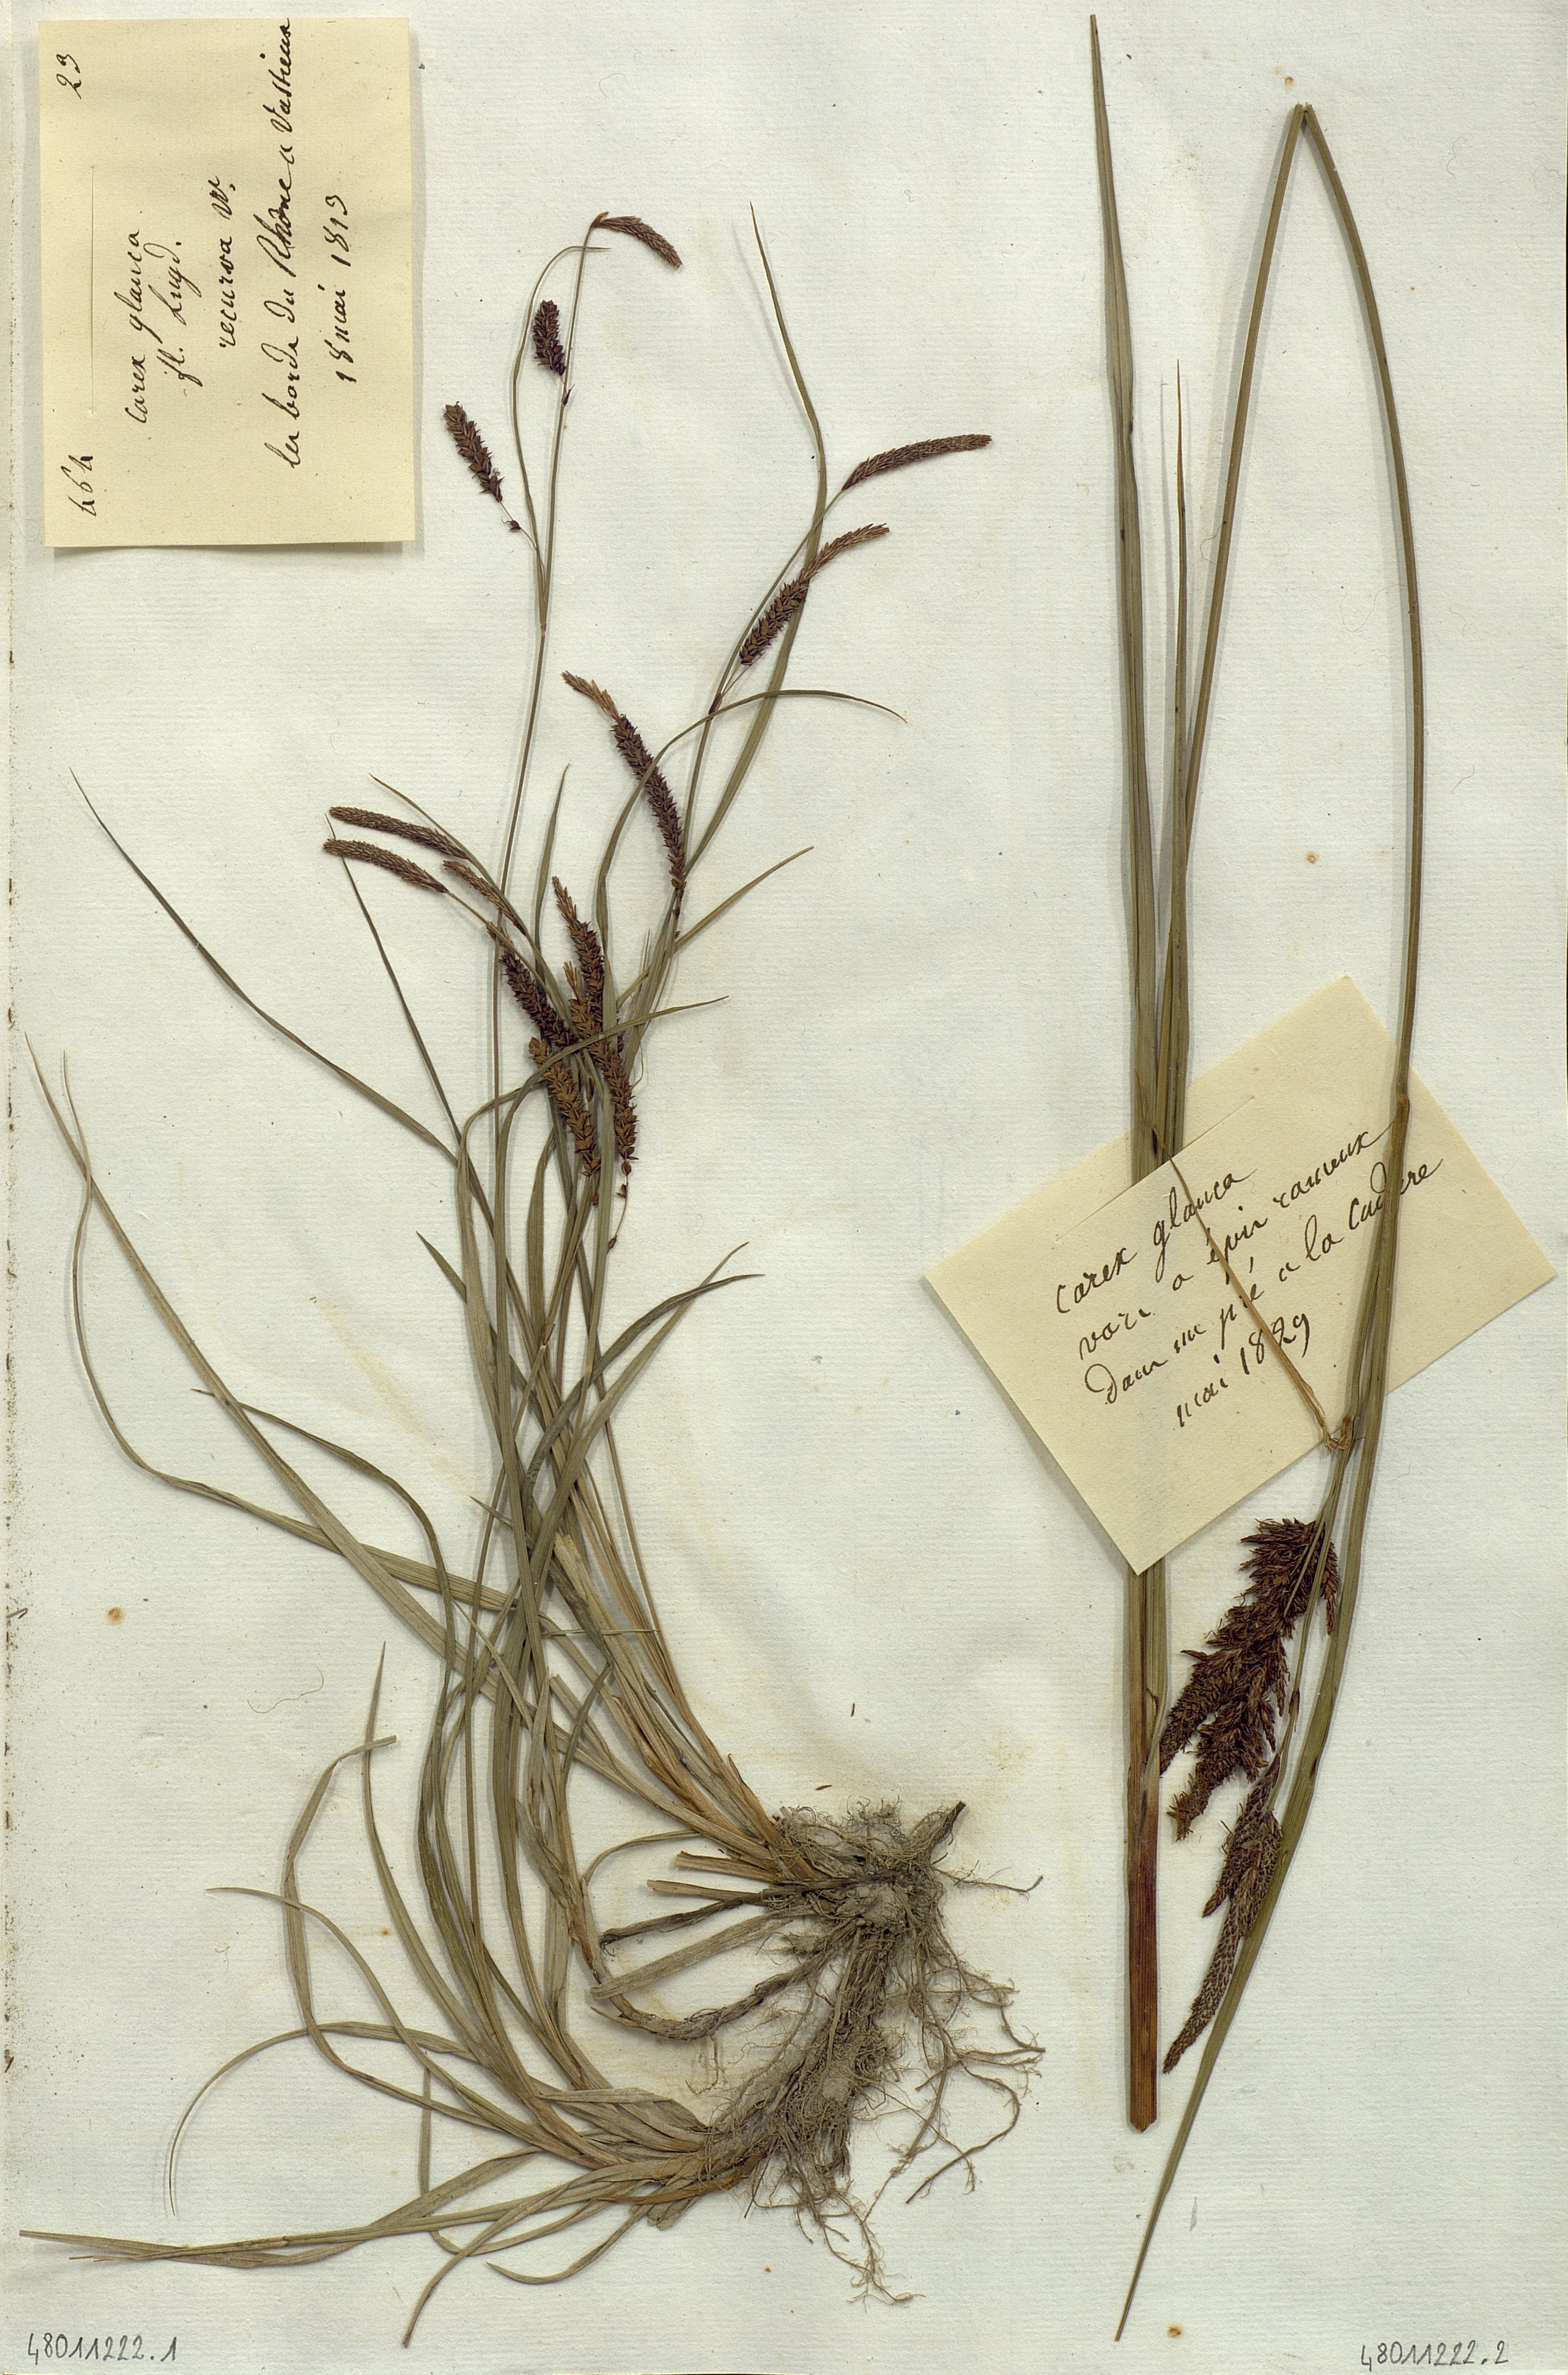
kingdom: Plantae
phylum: Tracheophyta
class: Liliopsida
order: Poales
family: Cyperaceae
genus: Carex
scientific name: Carex
